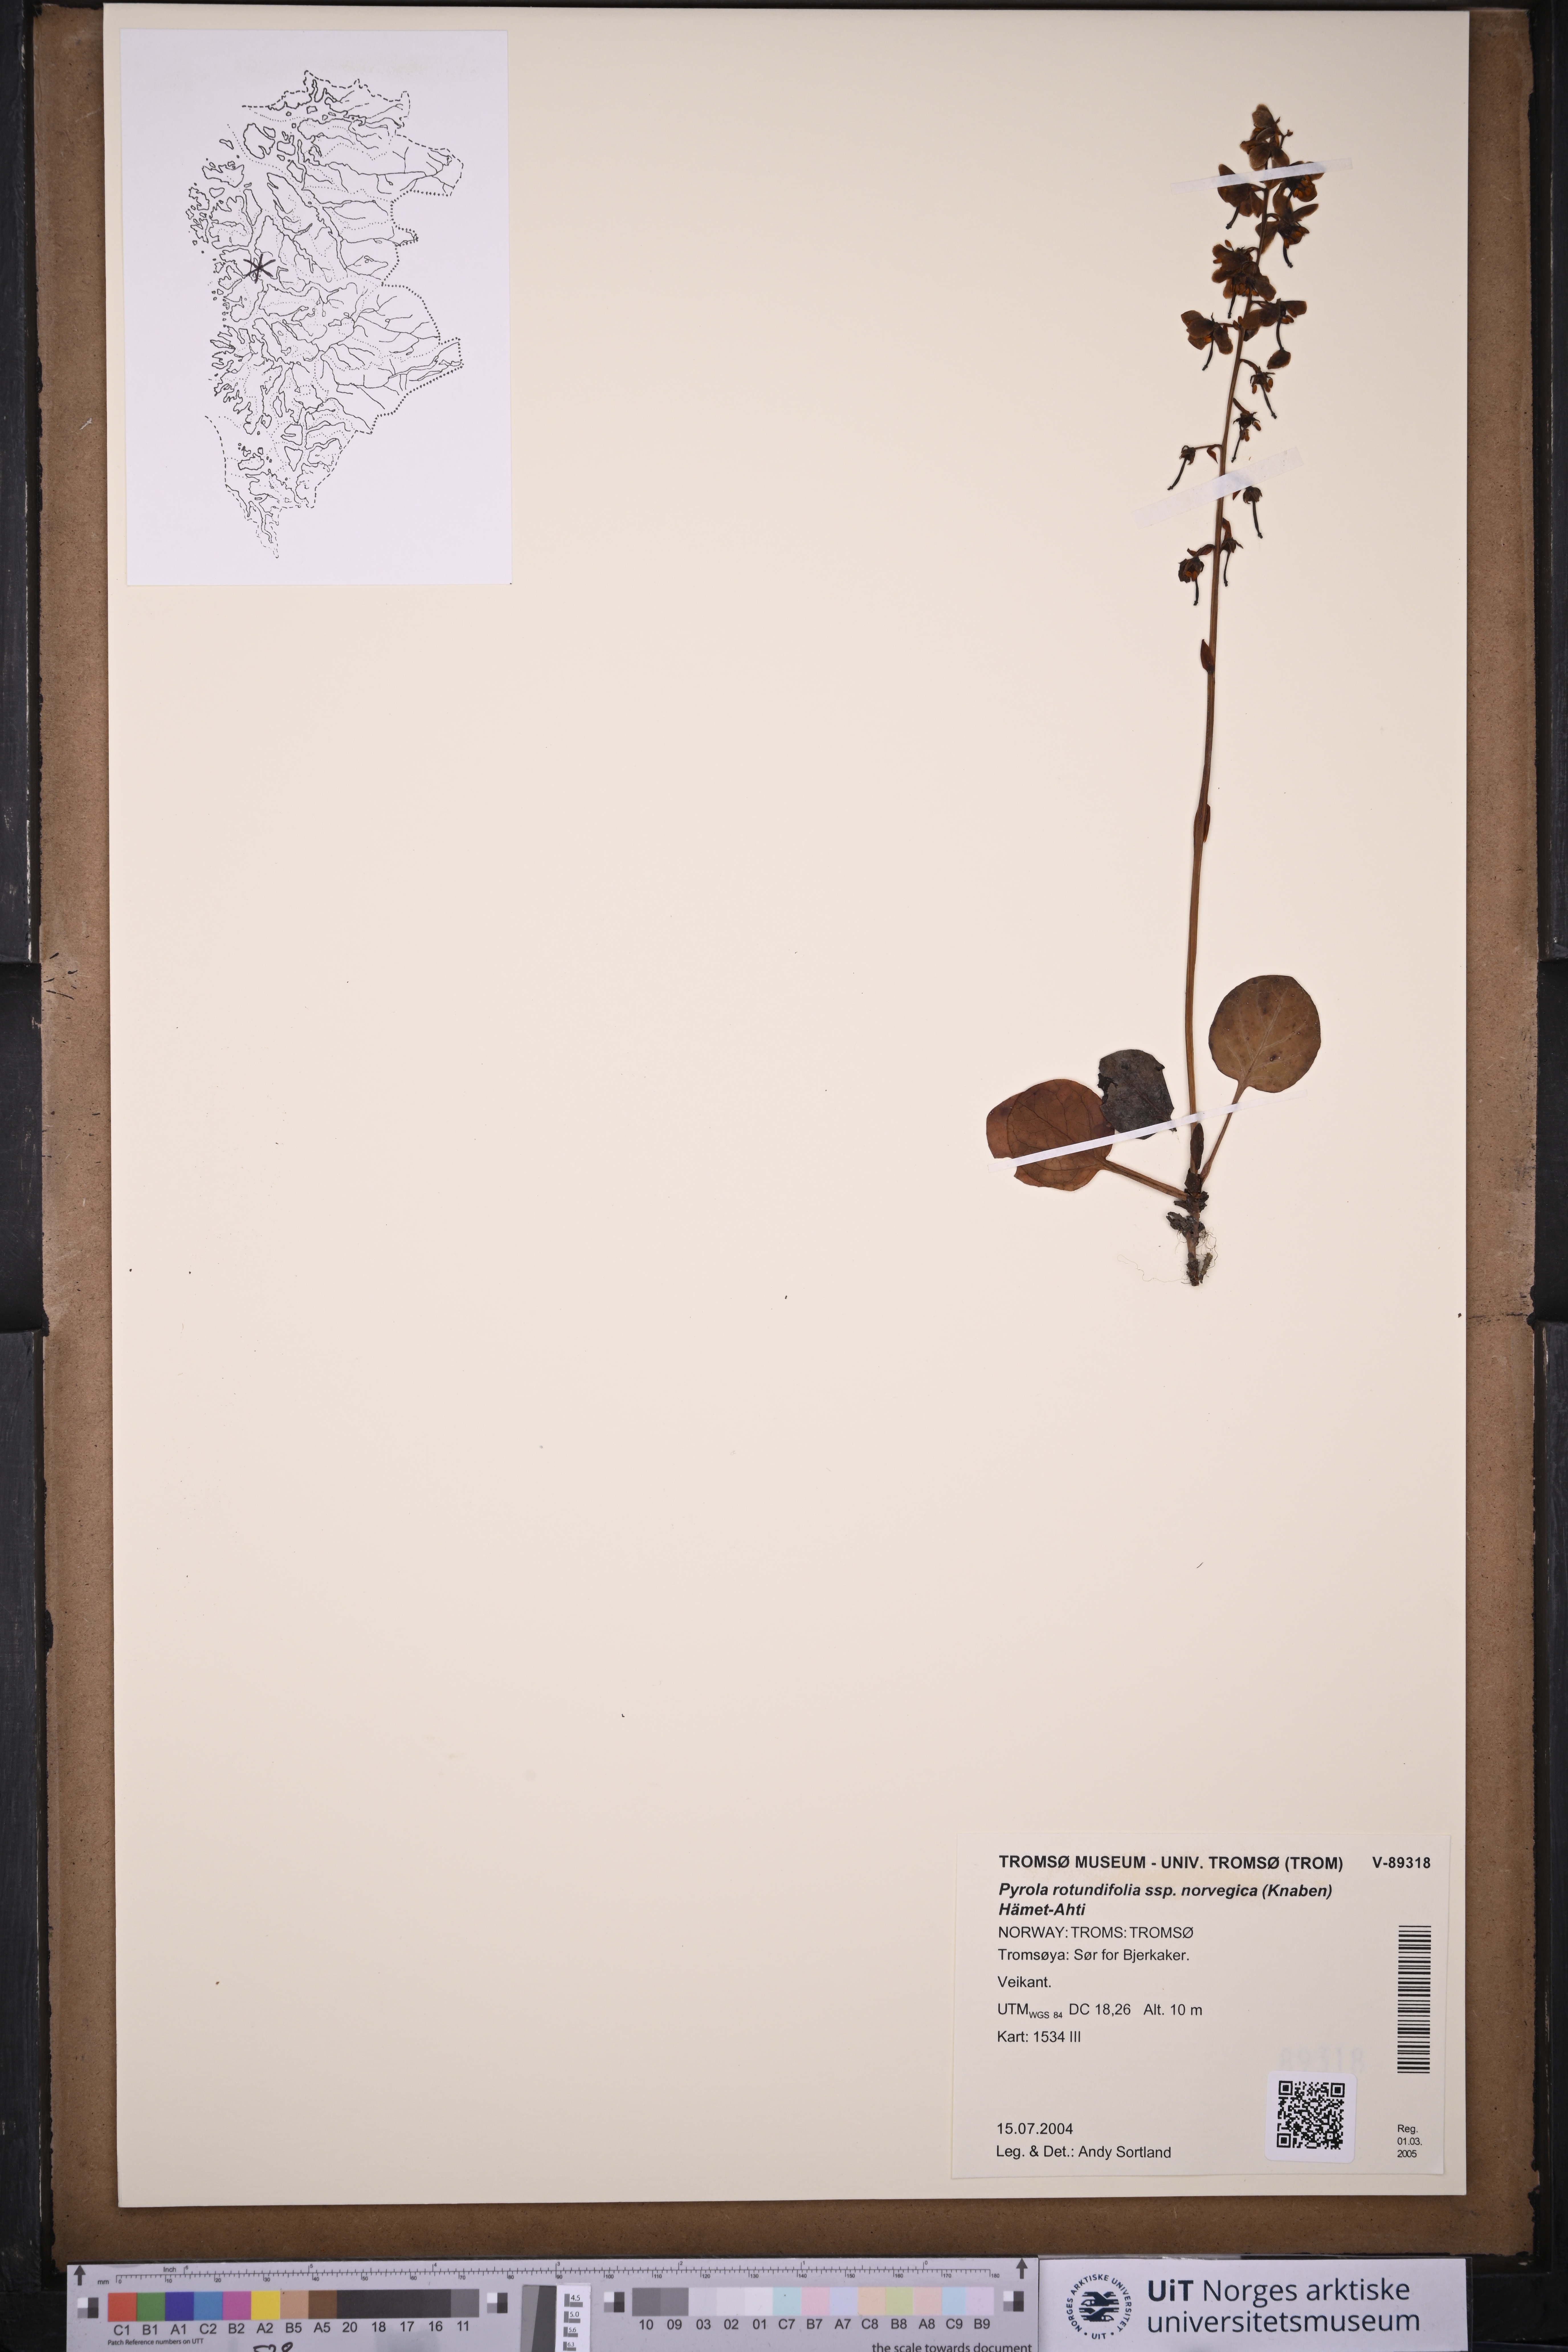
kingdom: Plantae
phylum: Tracheophyta
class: Magnoliopsida
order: Ericales
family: Ericaceae
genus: Pyrola
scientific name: Pyrola rotundifolia
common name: Round-leaved wintergreen
